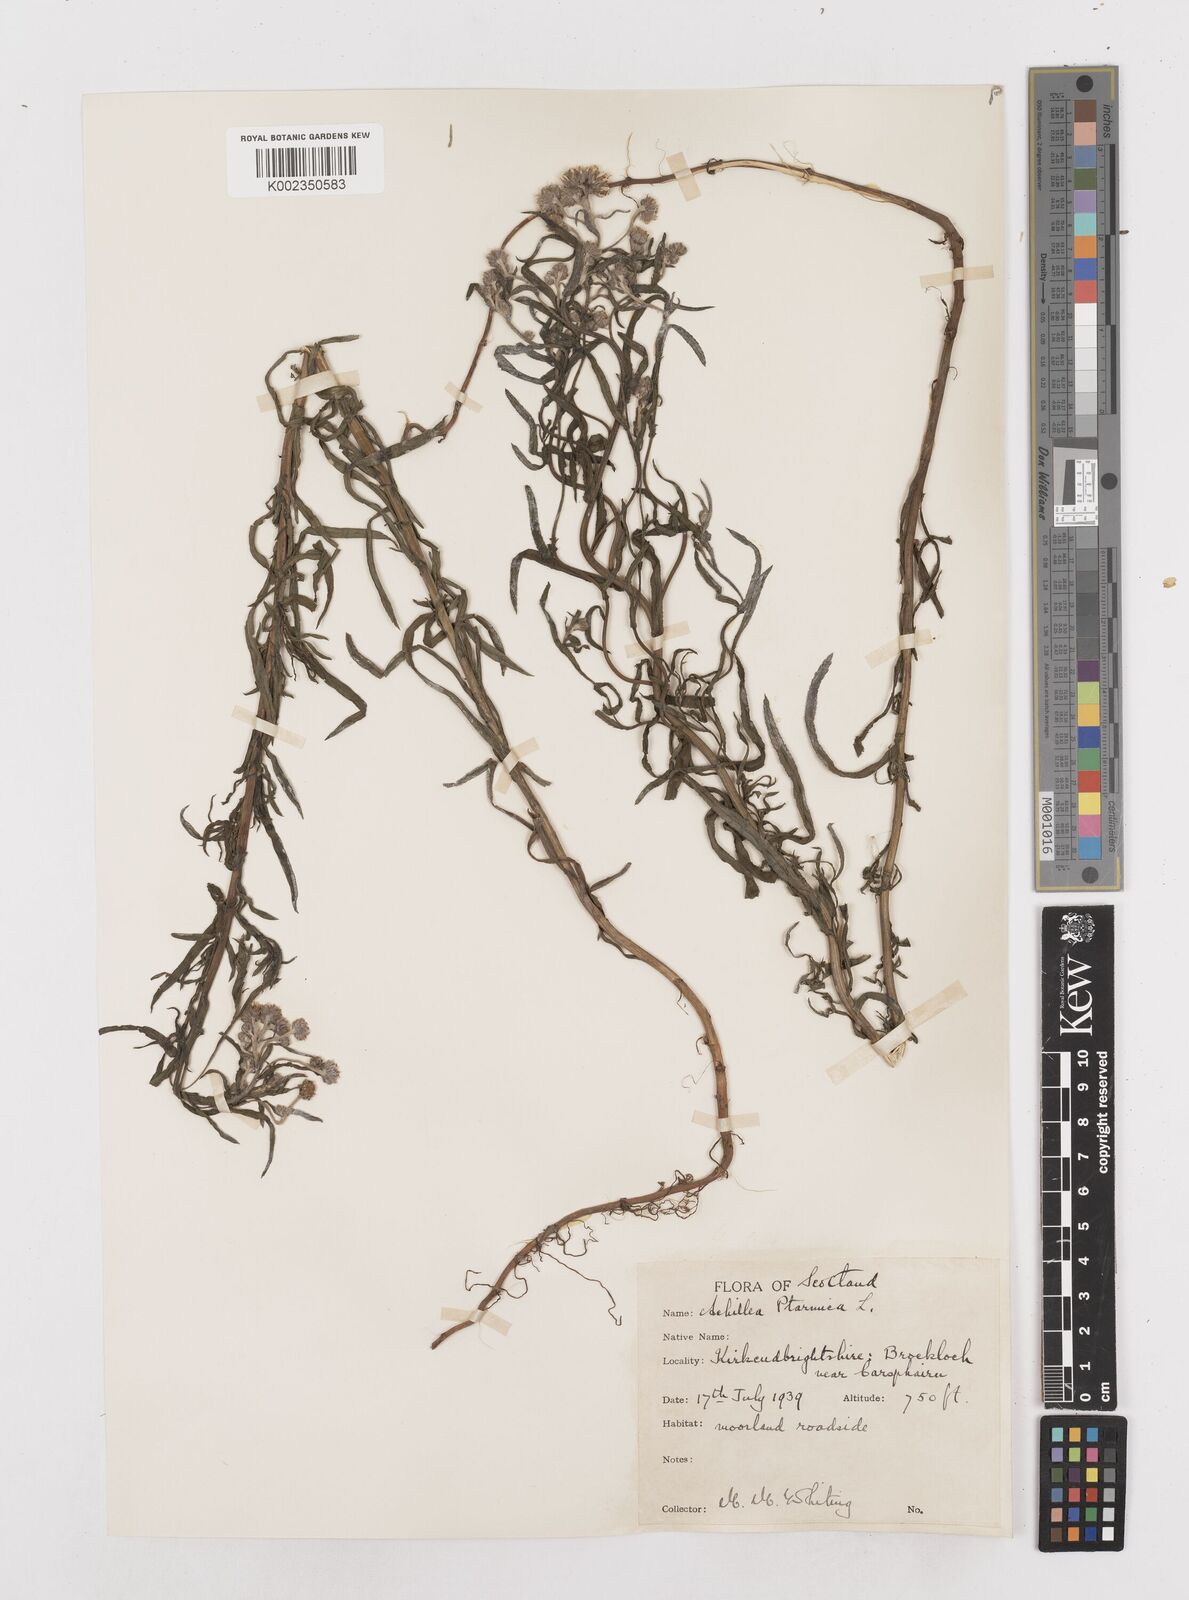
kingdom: Plantae
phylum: Tracheophyta
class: Magnoliopsida
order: Asterales
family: Asteraceae
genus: Achillea
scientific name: Achillea ptarmica
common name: Sneezeweed
